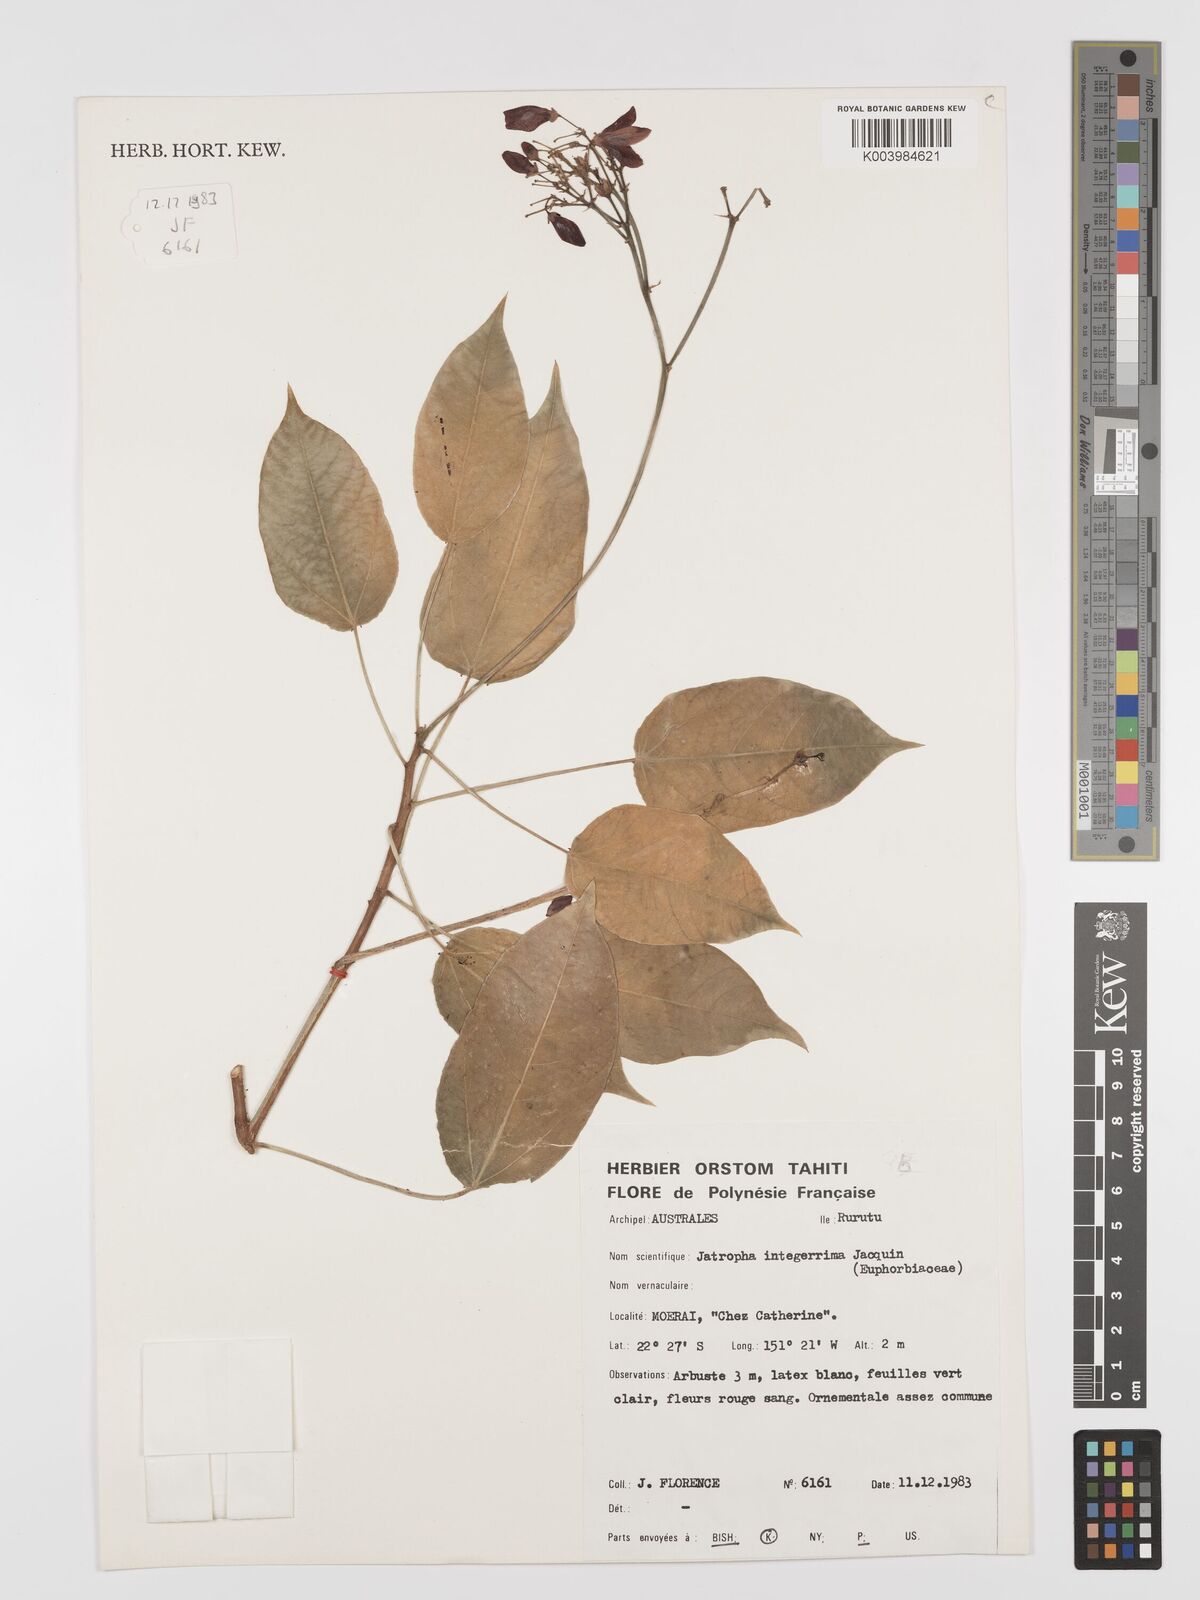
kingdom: Plantae
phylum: Tracheophyta
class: Magnoliopsida
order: Malpighiales
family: Euphorbiaceae
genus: Jatropha
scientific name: Jatropha integerrima
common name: Peregrina
